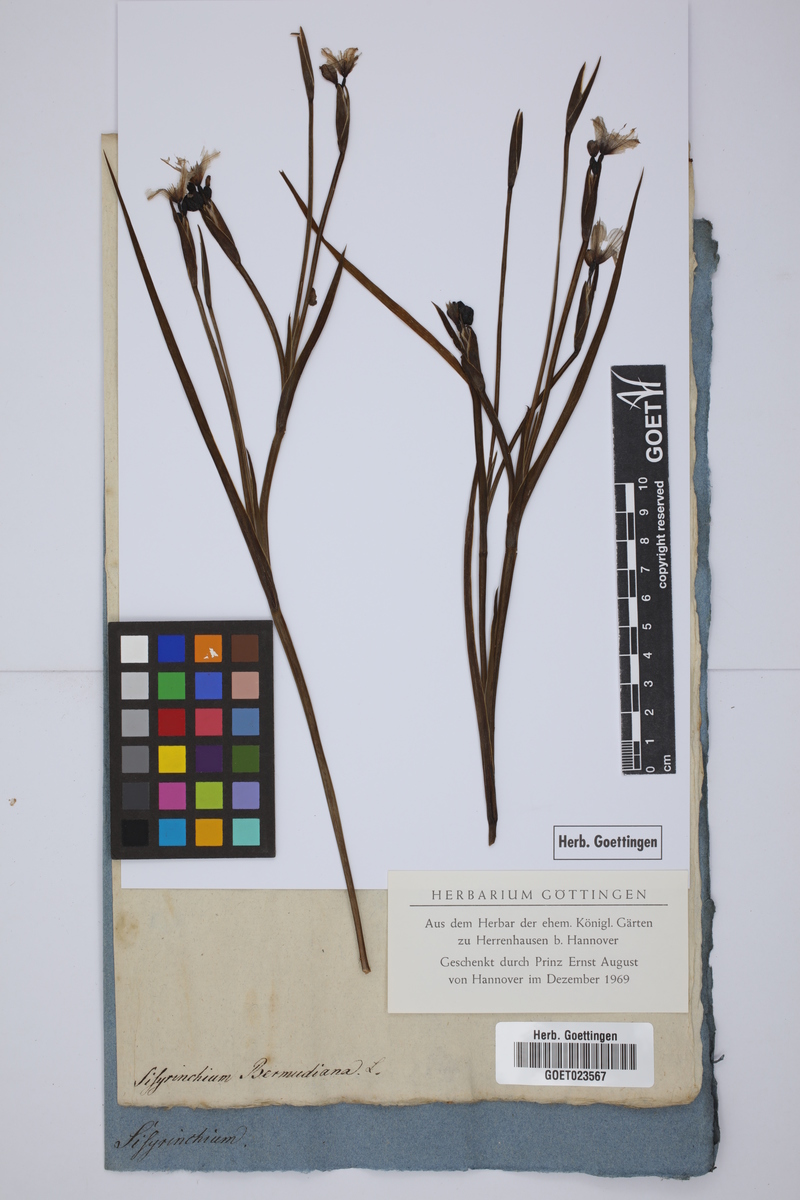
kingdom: Plantae
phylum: Tracheophyta
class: Liliopsida
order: Asparagales
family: Iridaceae
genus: Sisyrinchium
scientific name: Sisyrinchium bermudiana
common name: Blue-eyed-grass
